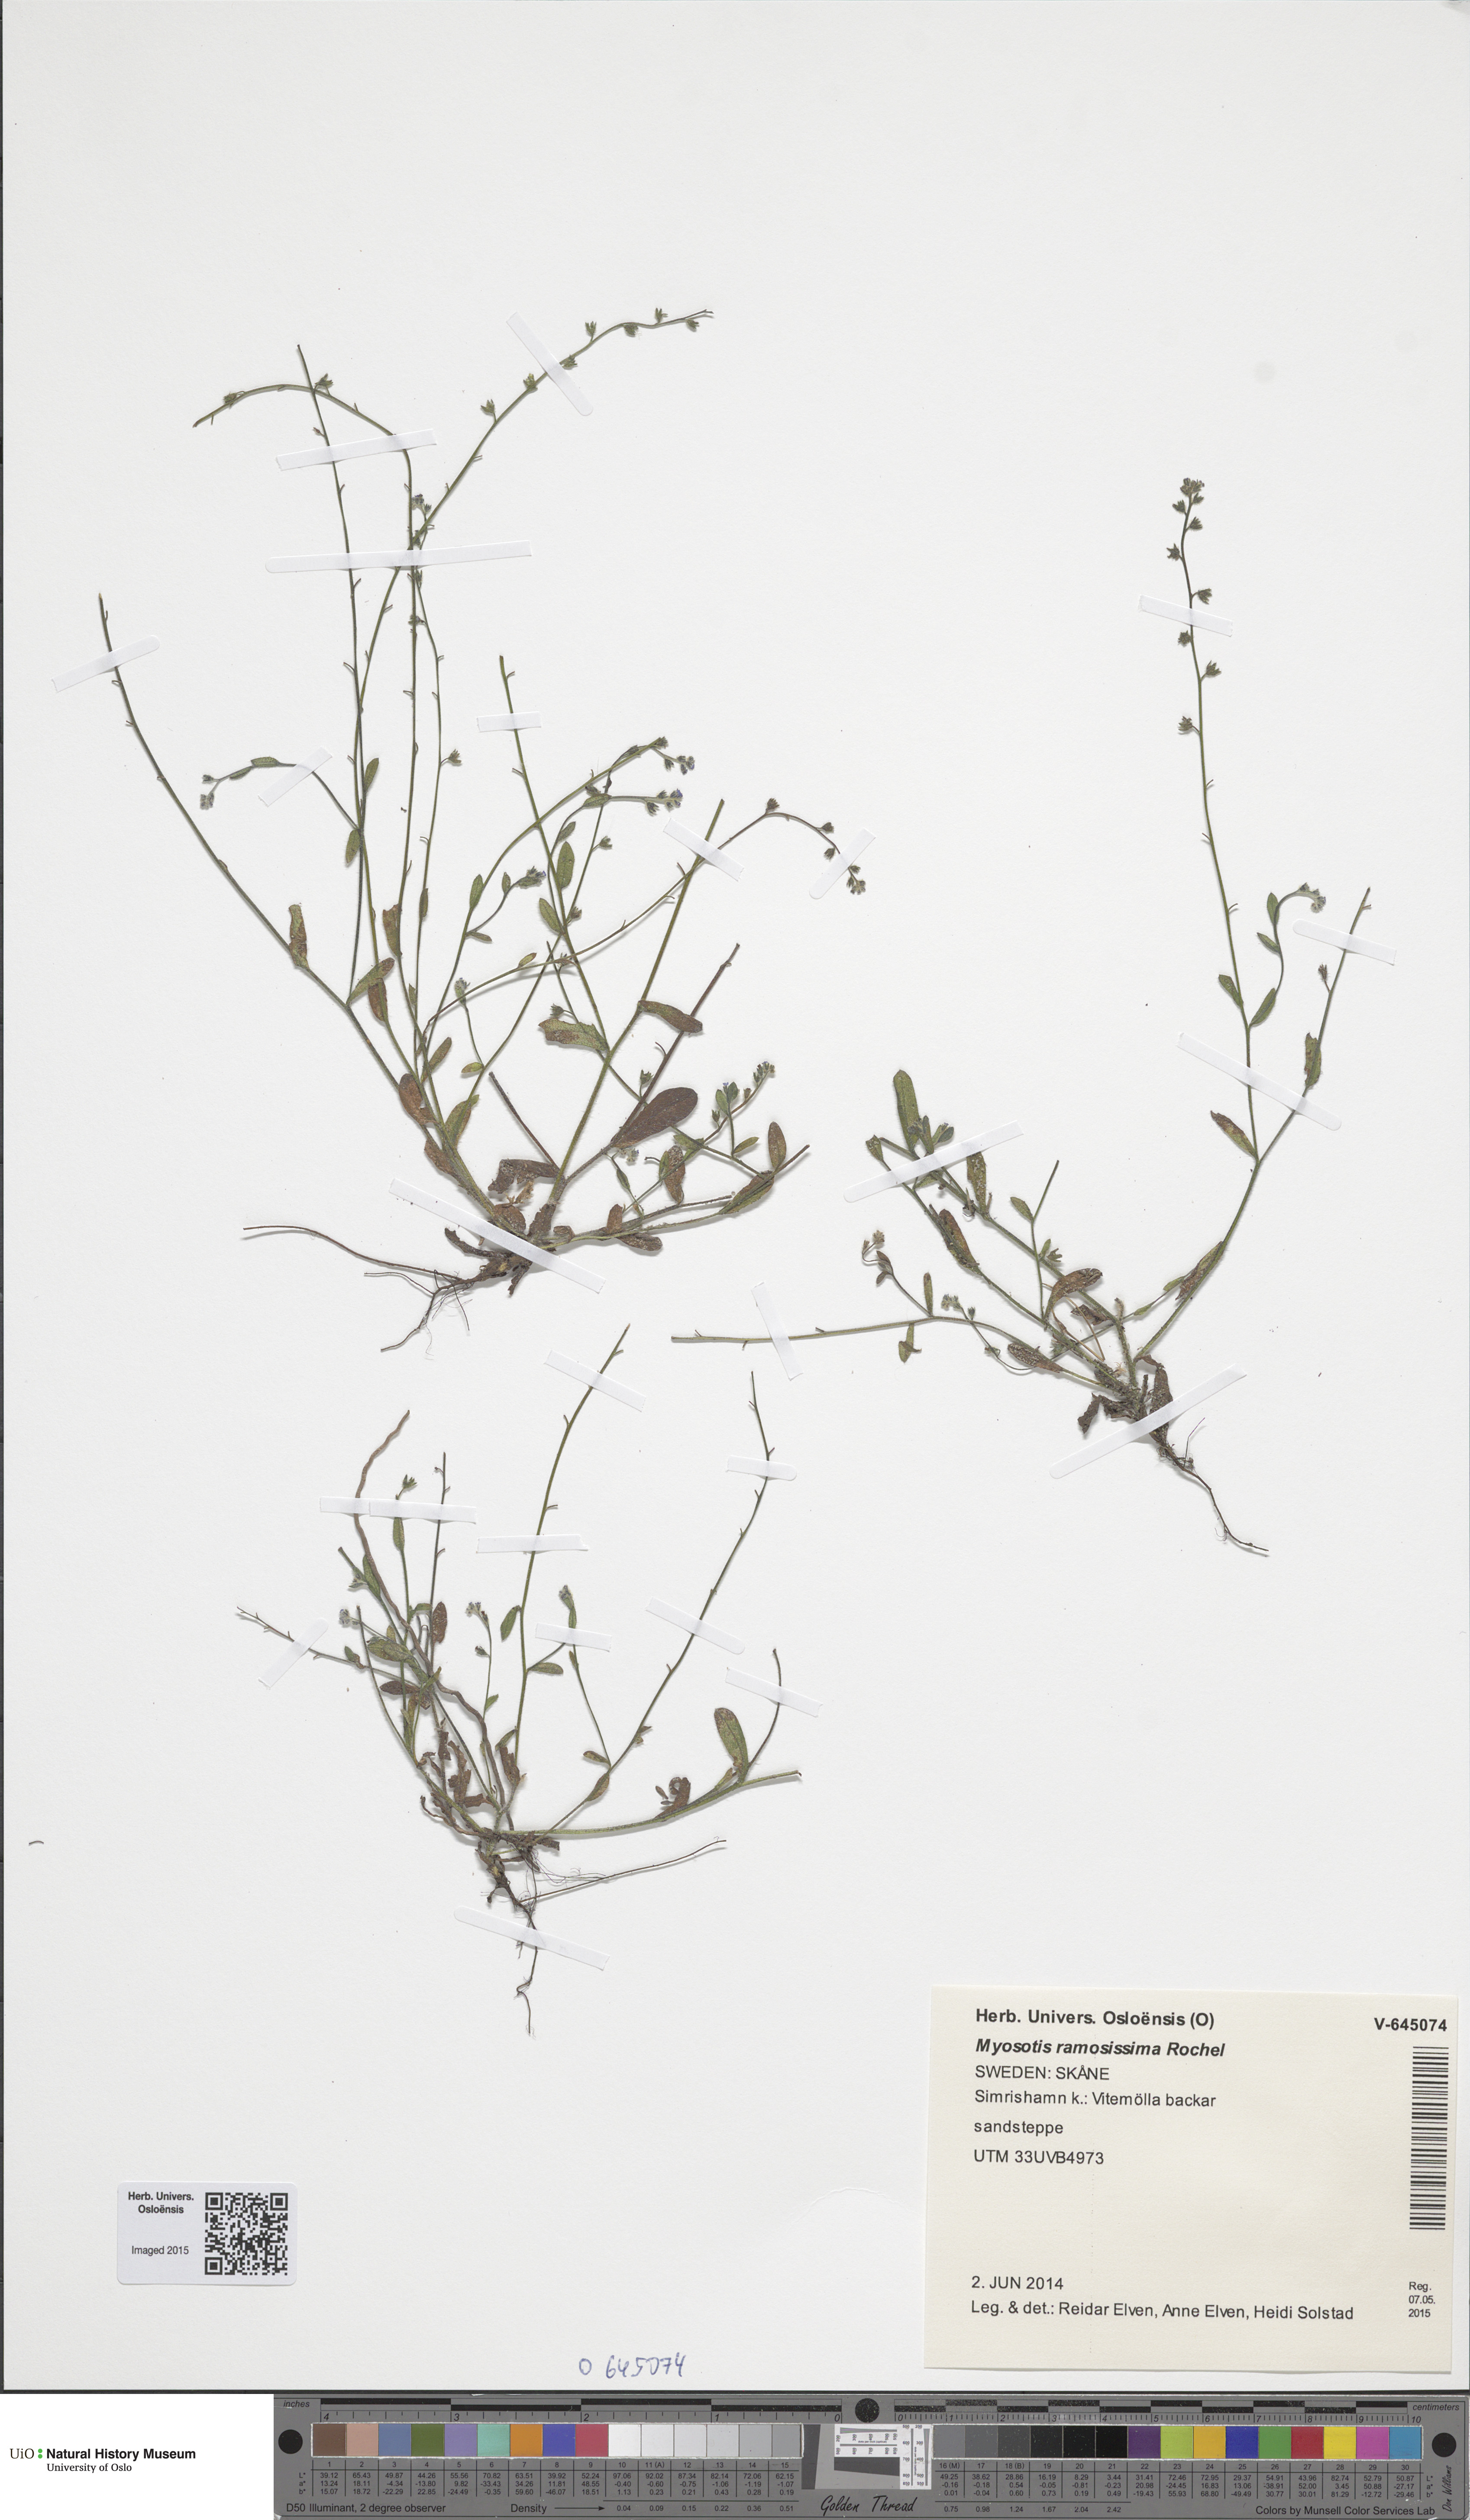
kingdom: Plantae
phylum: Tracheophyta
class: Magnoliopsida
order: Boraginales
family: Boraginaceae
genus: Myosotis
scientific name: Myosotis ramosissima
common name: Early forget-me-not
